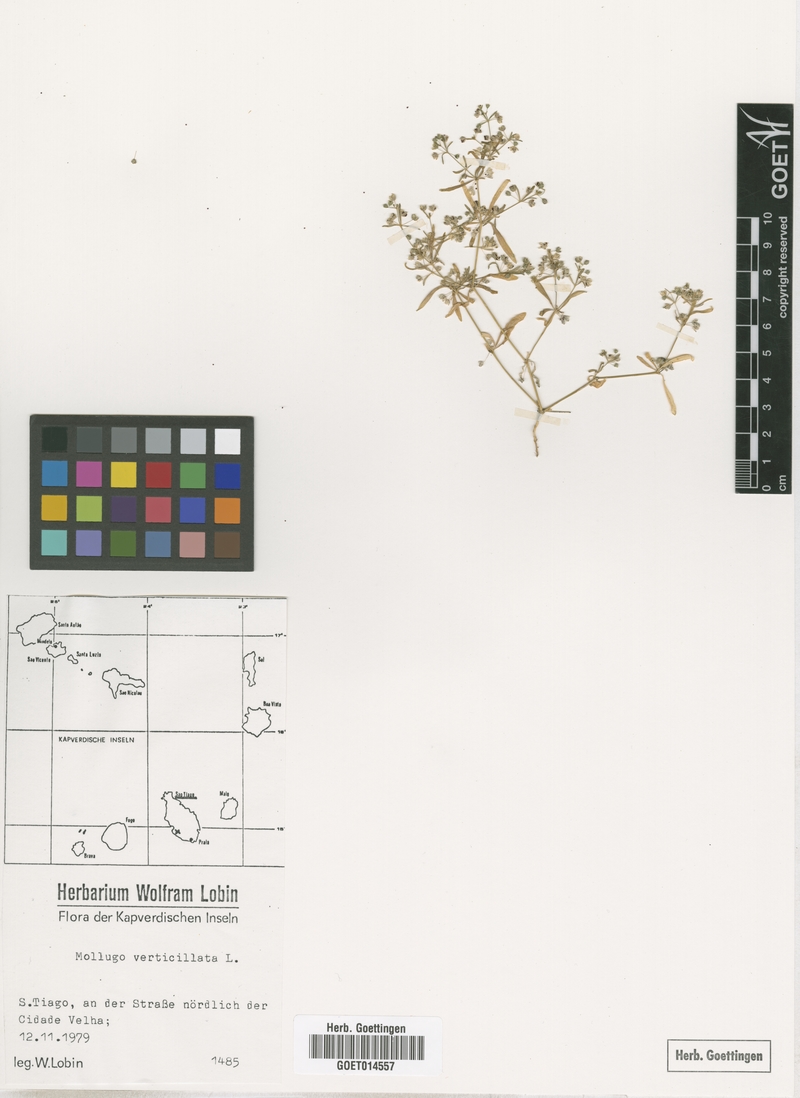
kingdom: Plantae
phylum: Tracheophyta
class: Magnoliopsida
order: Caryophyllales
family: Molluginaceae
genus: Mollugo
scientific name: Mollugo verticillata
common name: Green carpetweed
